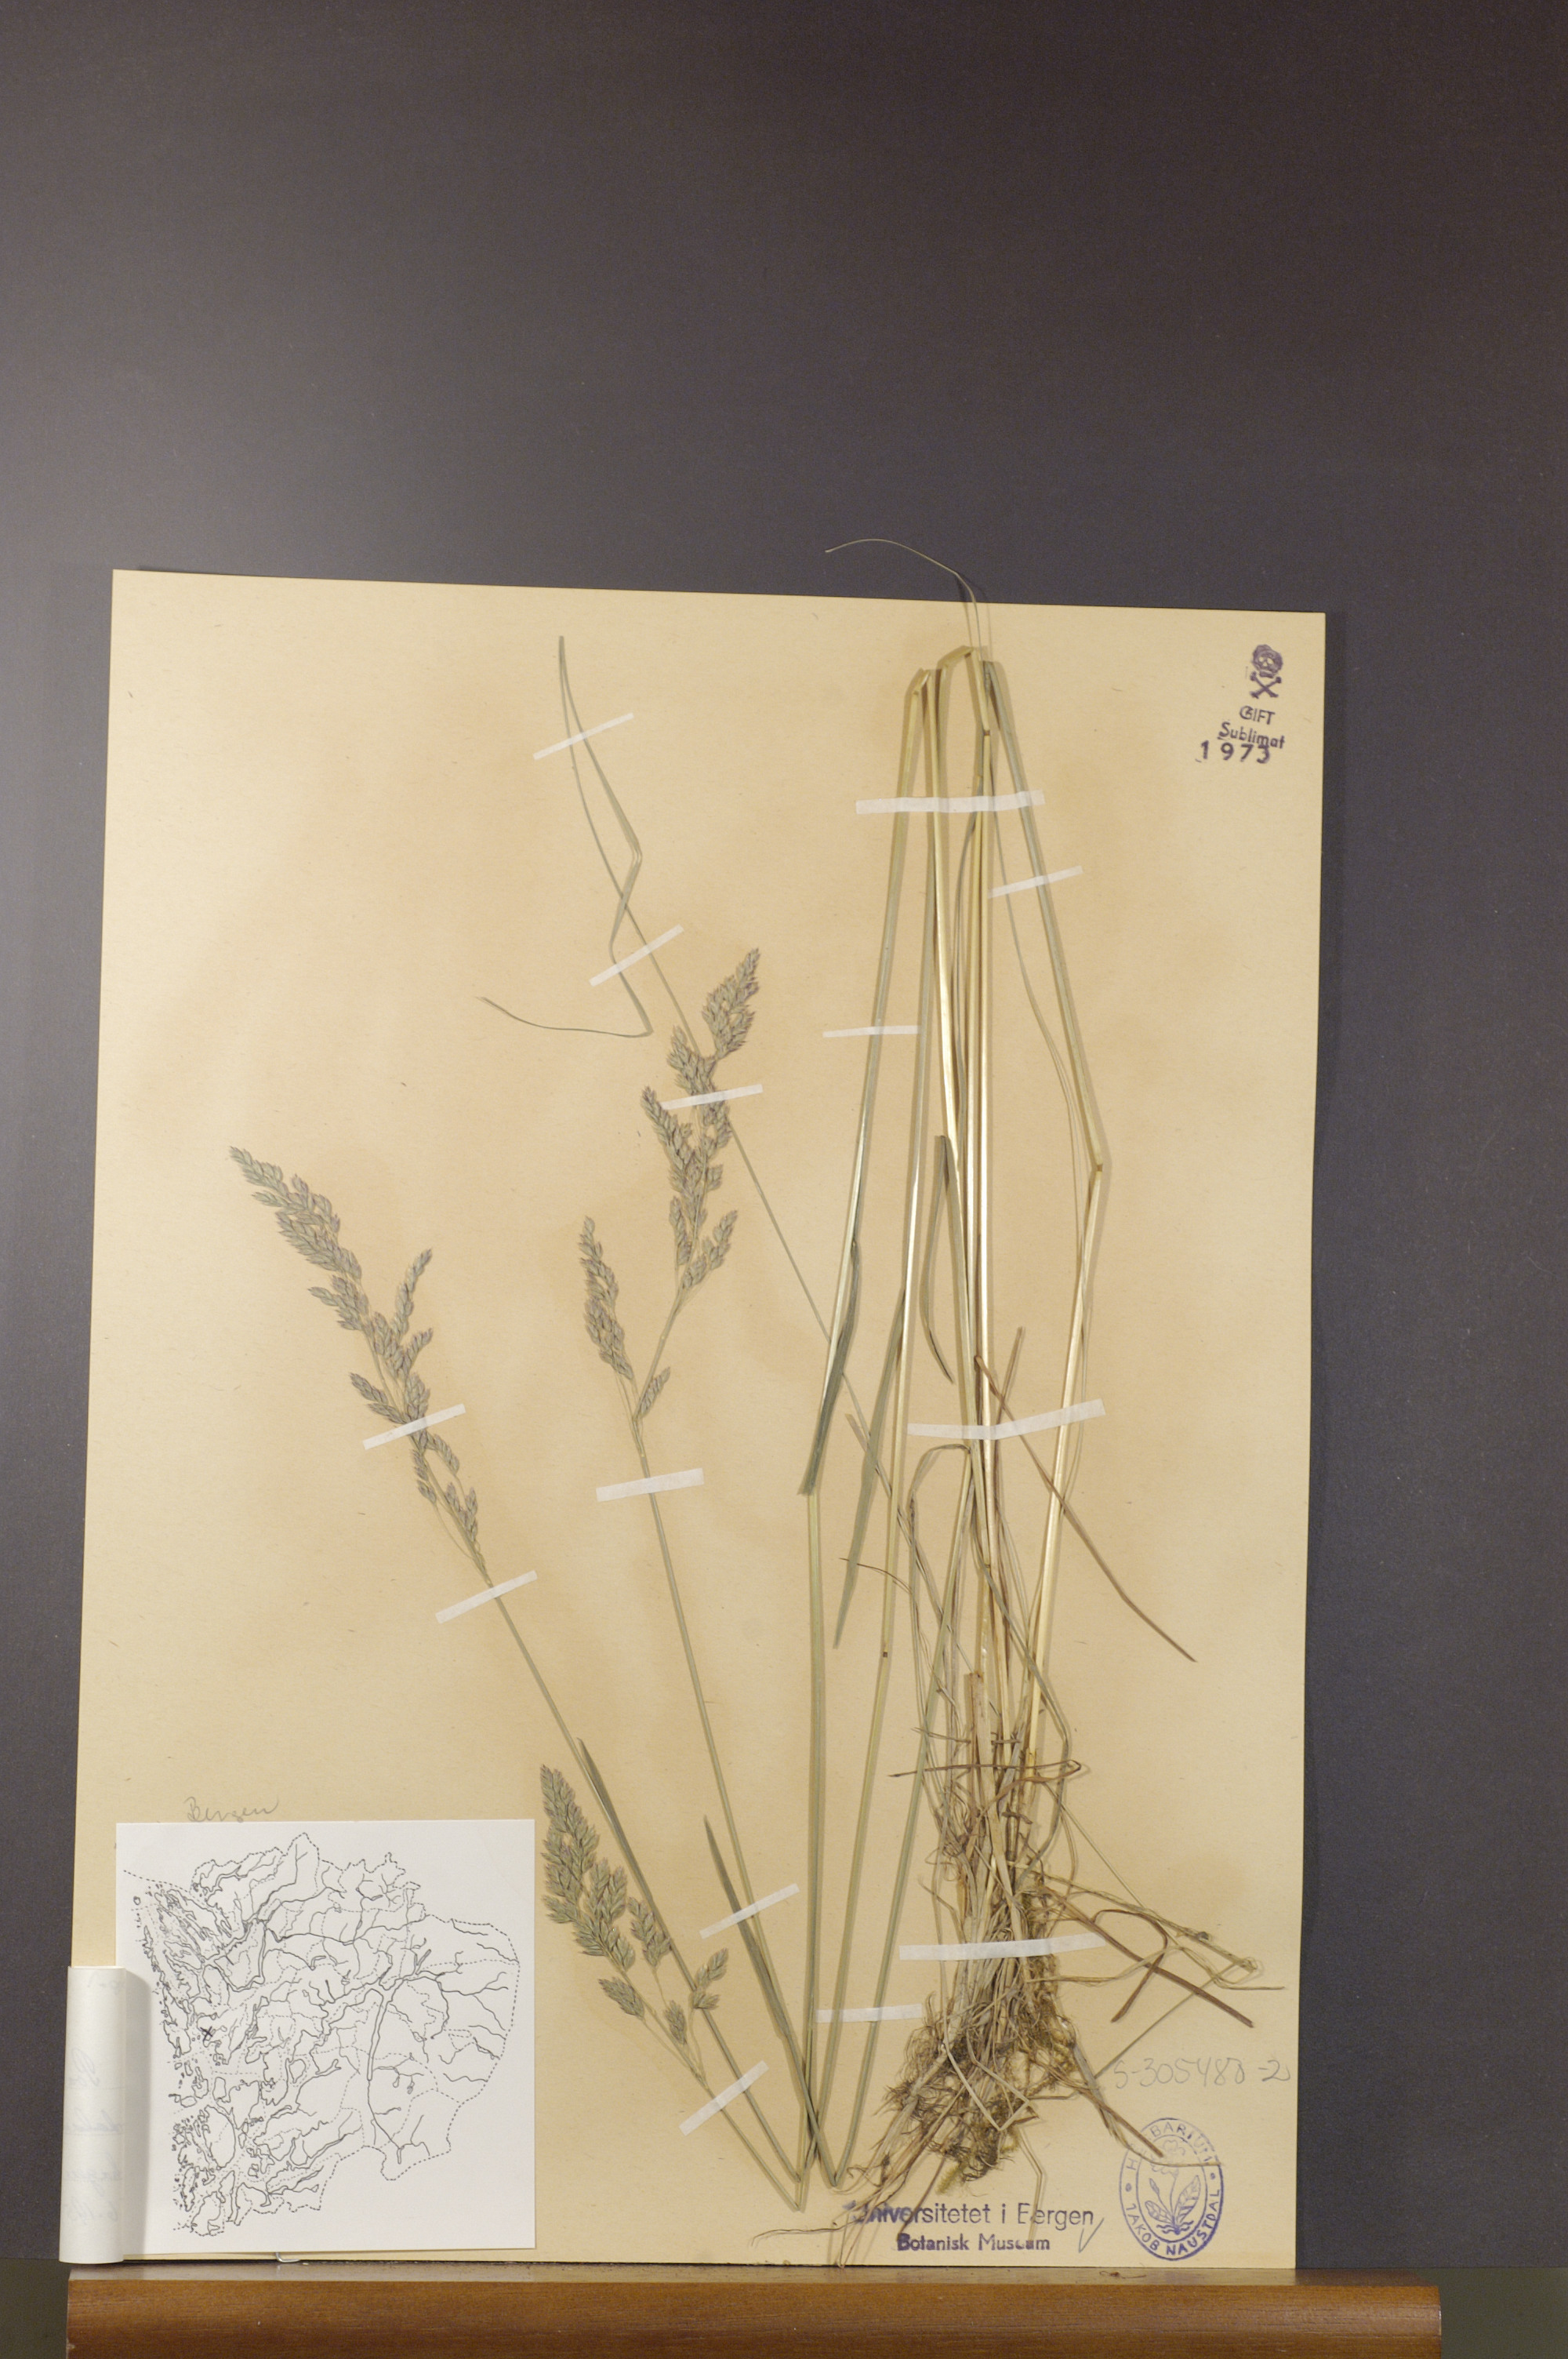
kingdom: Plantae
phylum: Tracheophyta
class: Liliopsida
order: Poales
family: Poaceae
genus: Poa
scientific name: Poa angustifolia
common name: Narrow-leaved meadow-grass
